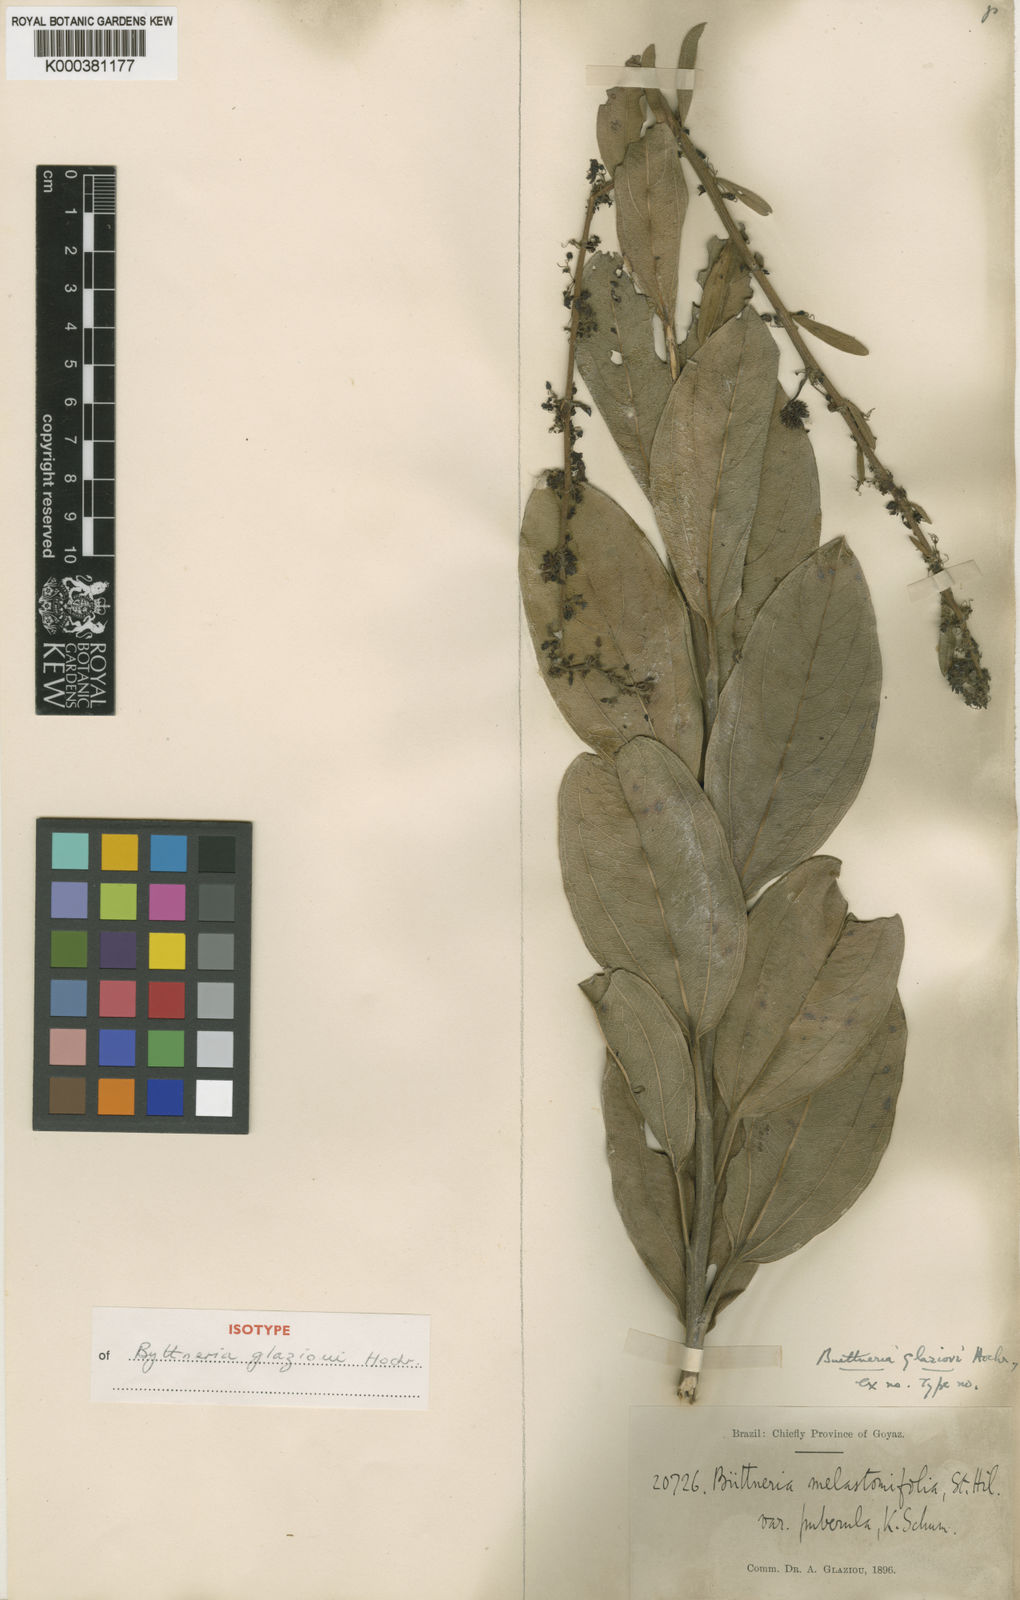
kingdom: Plantae
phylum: Tracheophyta
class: Magnoliopsida
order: Malvales
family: Malvaceae
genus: Byttneria
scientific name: Byttneria glazioui
